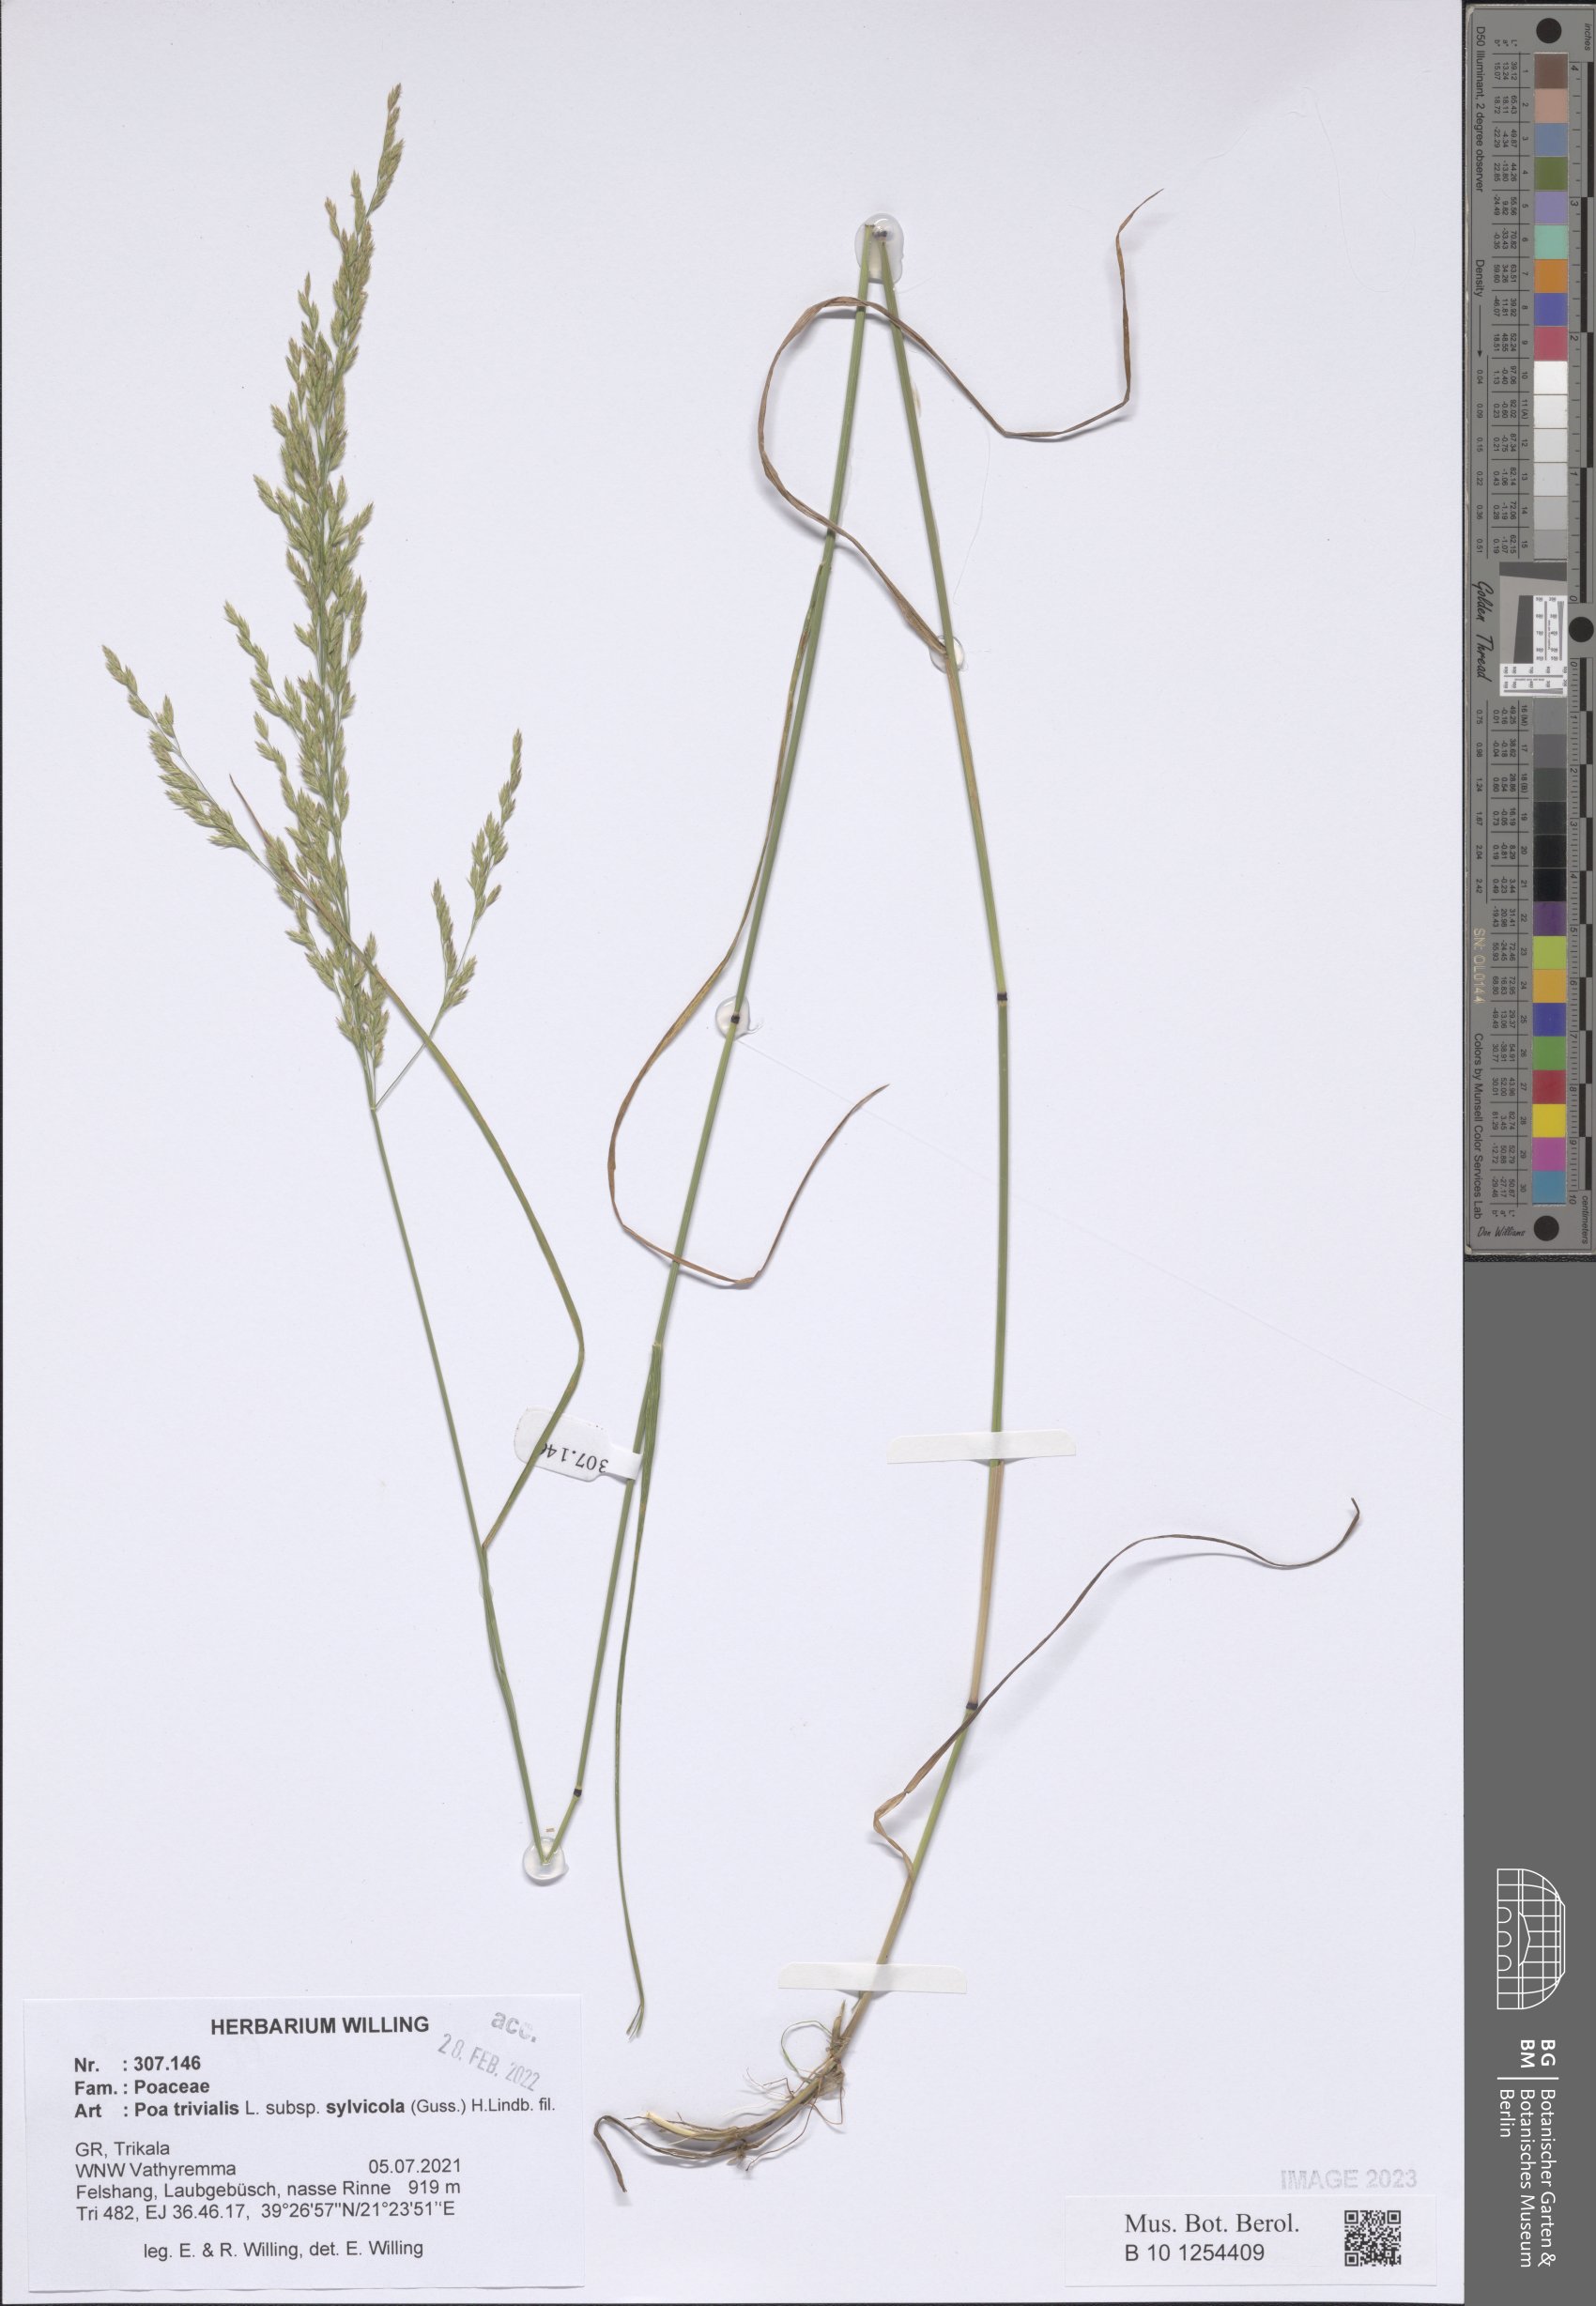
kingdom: Plantae
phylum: Tracheophyta
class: Liliopsida
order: Poales
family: Poaceae
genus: Poa
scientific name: Poa trivialis
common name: Rough bluegrass
